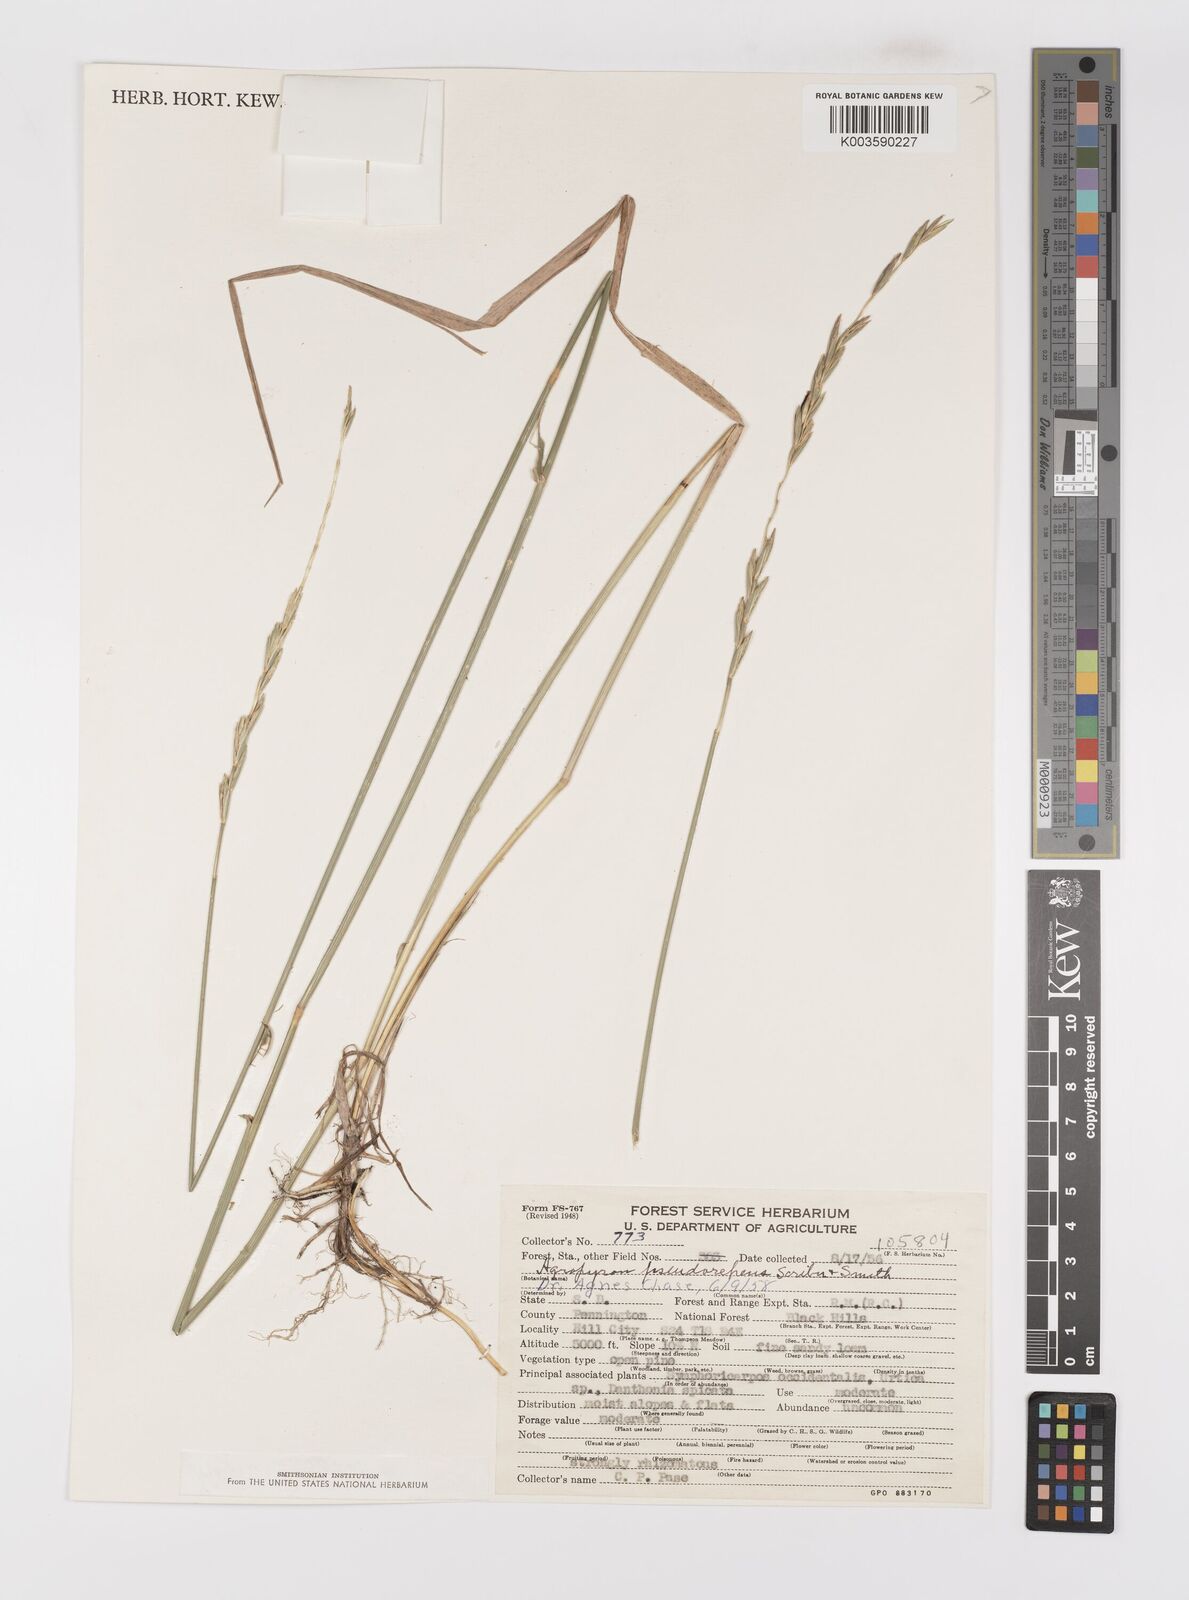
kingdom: Plantae
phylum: Tracheophyta
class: Liliopsida
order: Poales
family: Poaceae
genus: Elymus
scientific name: Elymus violaceus
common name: Arctic wheatgrass
